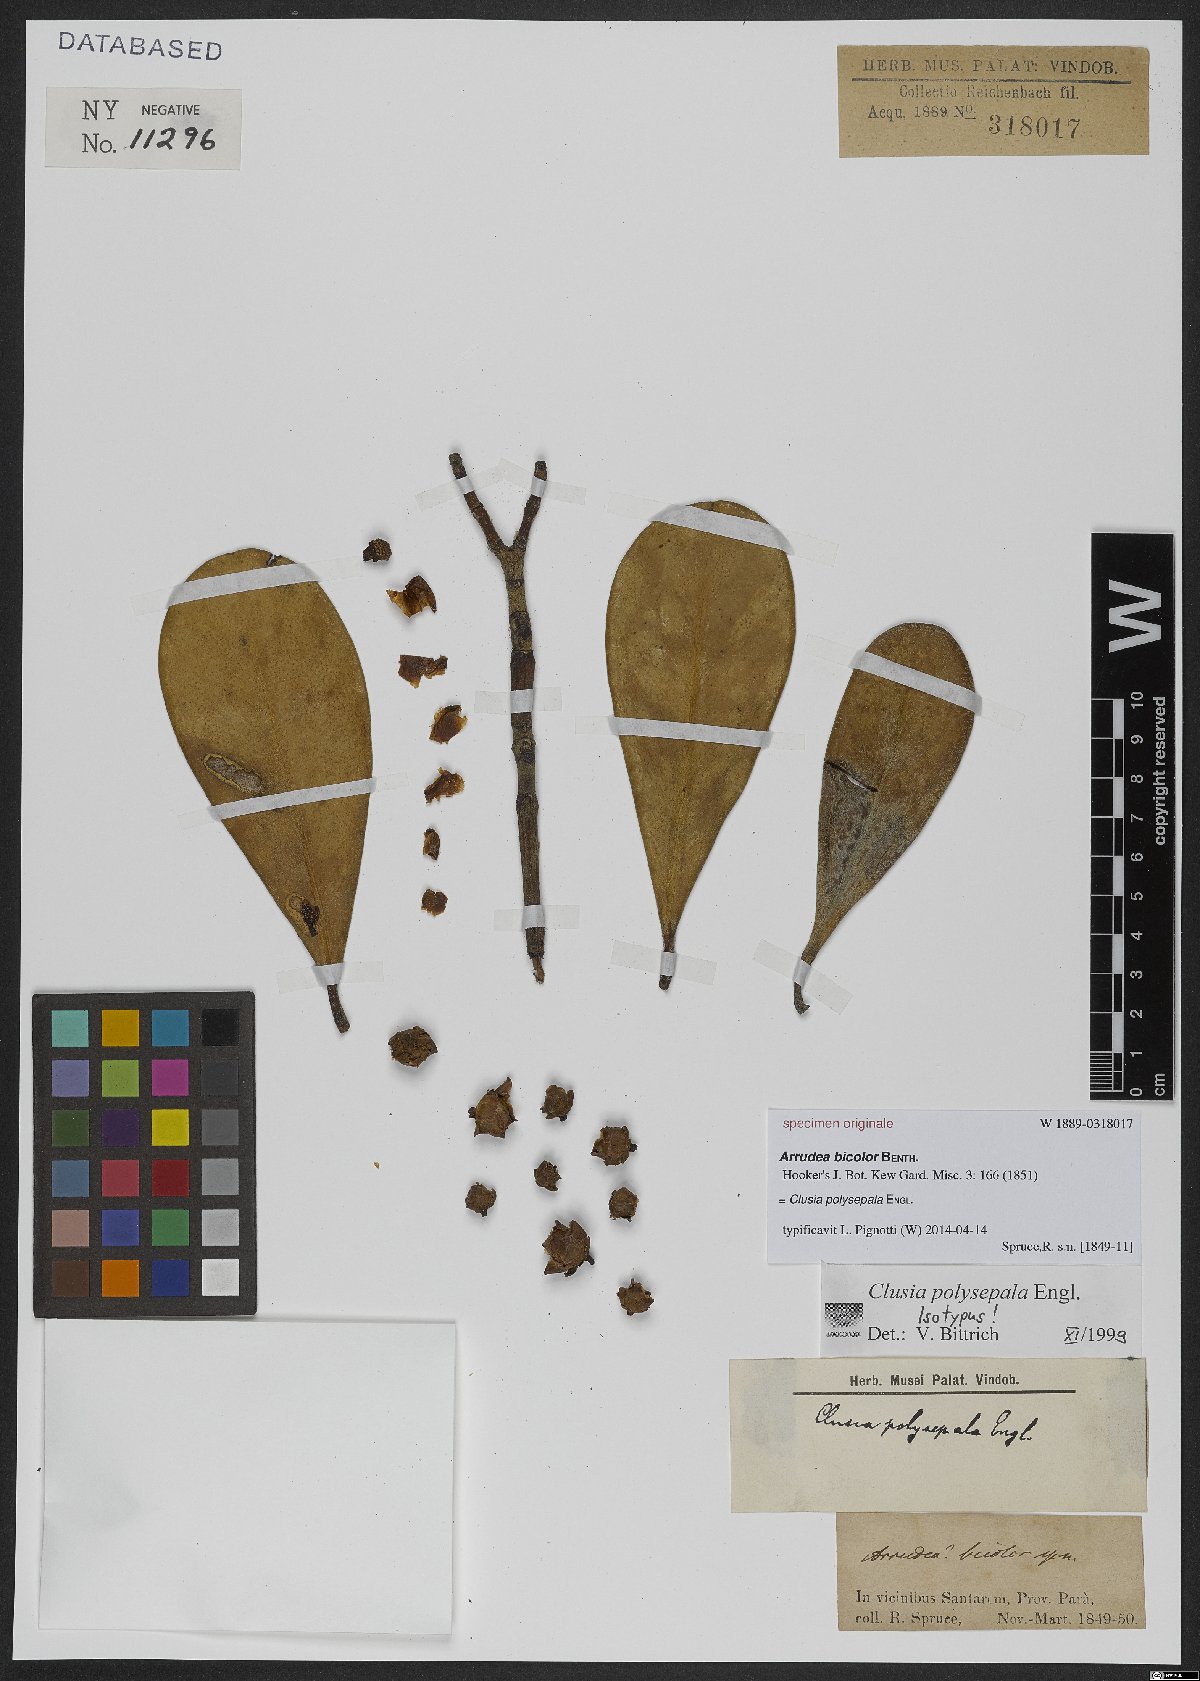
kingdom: Plantae
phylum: Tracheophyta
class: Magnoliopsida
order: Malpighiales
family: Clusiaceae
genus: Clusia
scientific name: Clusia polysepala
